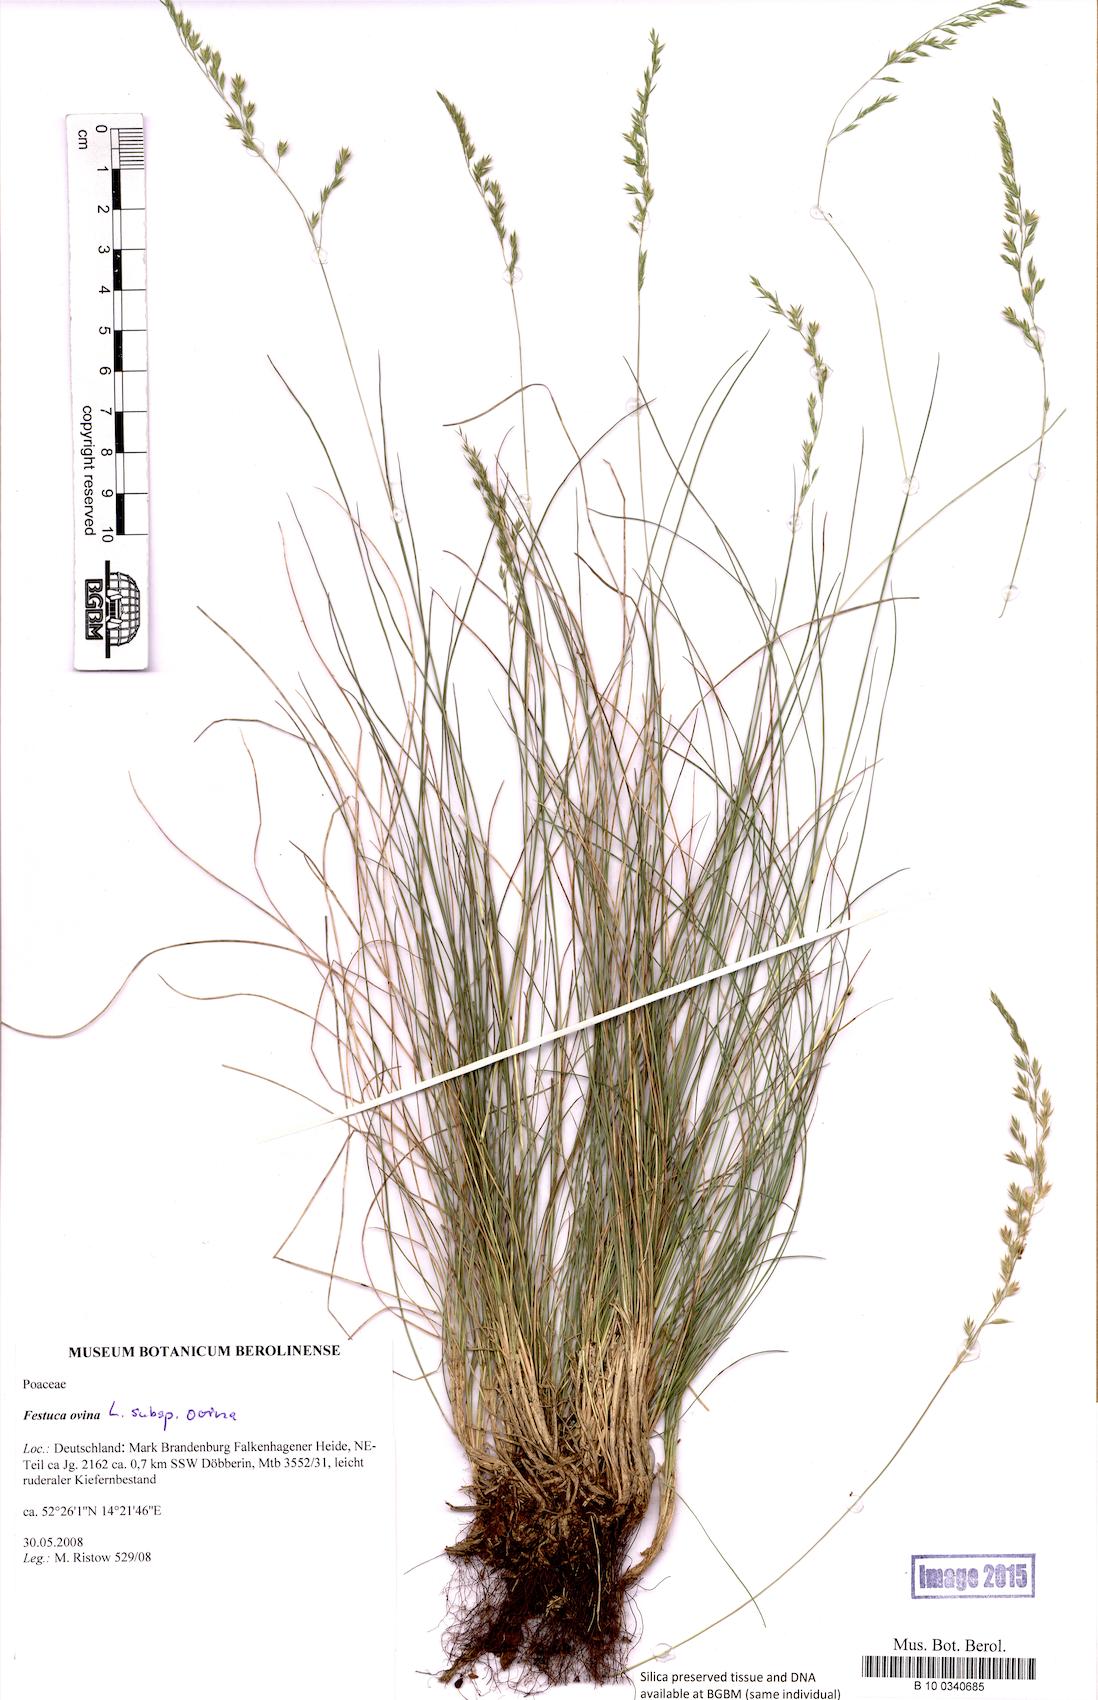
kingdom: Plantae
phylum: Tracheophyta
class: Liliopsida
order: Poales
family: Poaceae
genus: Festuca
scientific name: Festuca ovina
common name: Sheep fescue
